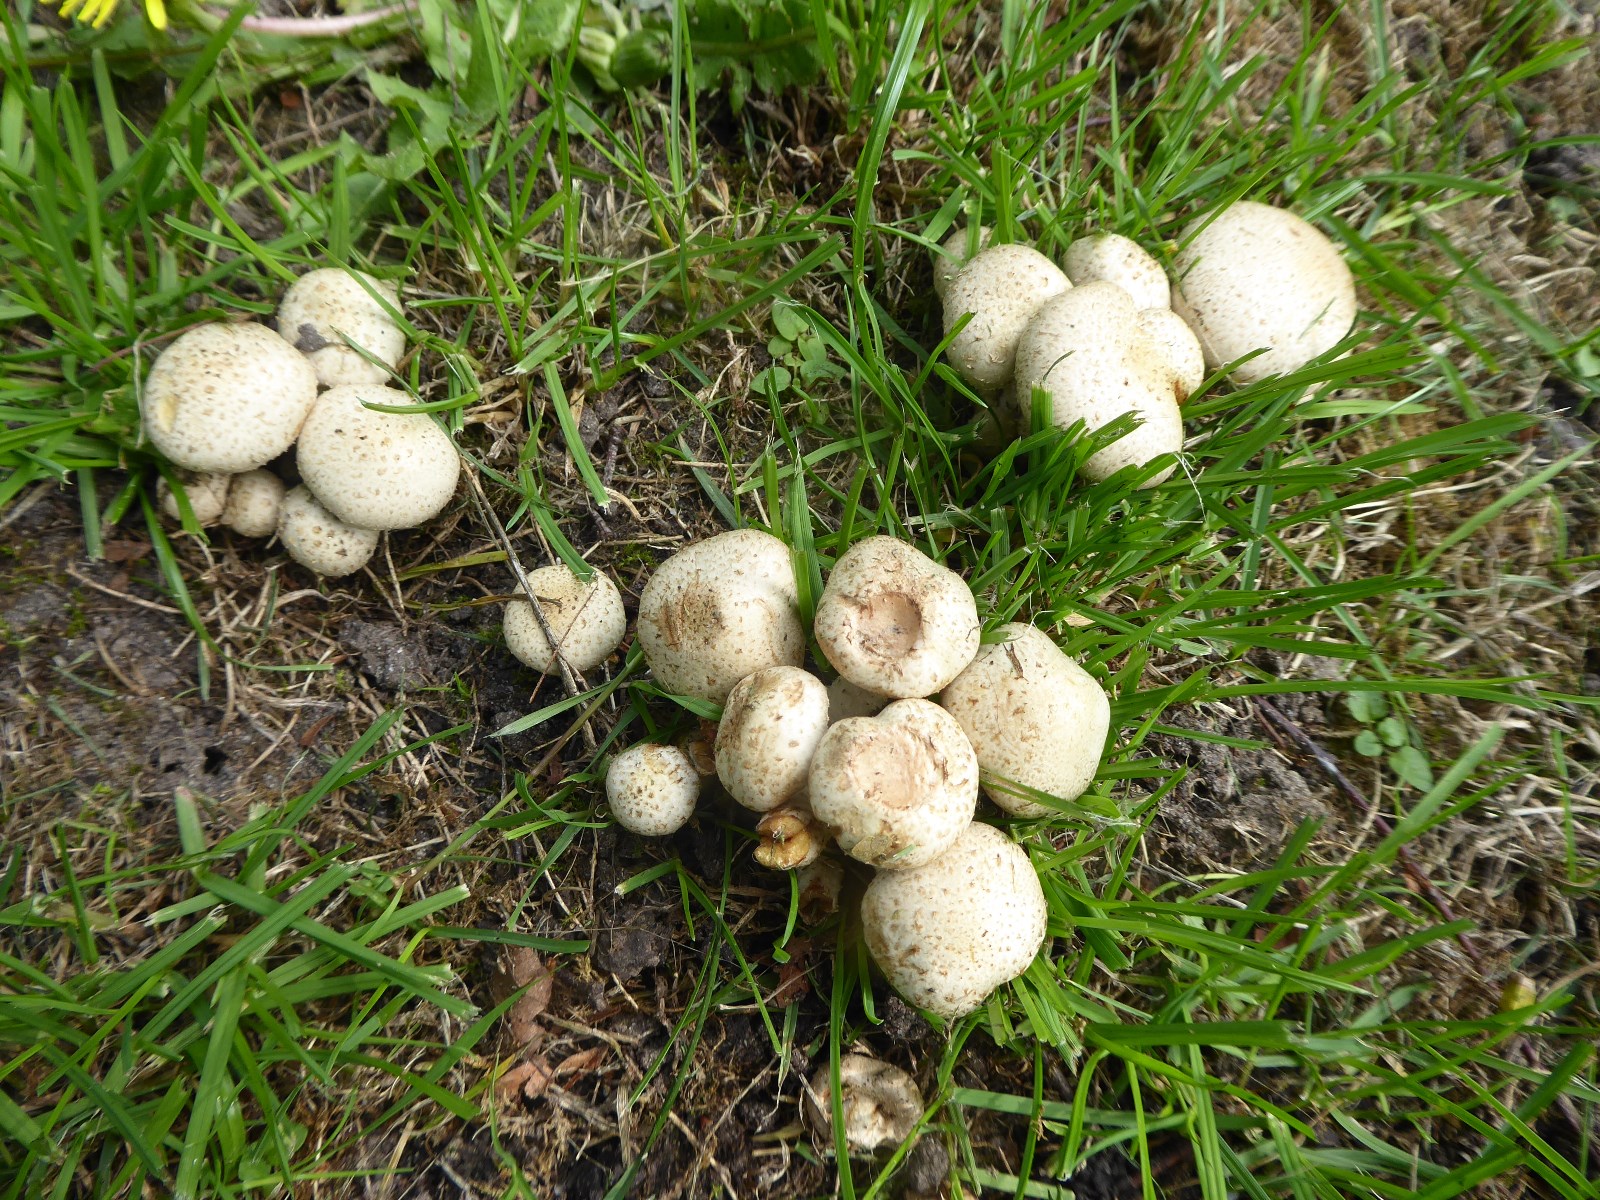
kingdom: Fungi
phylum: Basidiomycota
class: Agaricomycetes
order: Agaricales
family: Strophariaceae
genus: Pholiota
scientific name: Pholiota gummosa
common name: grøngul skælhat
